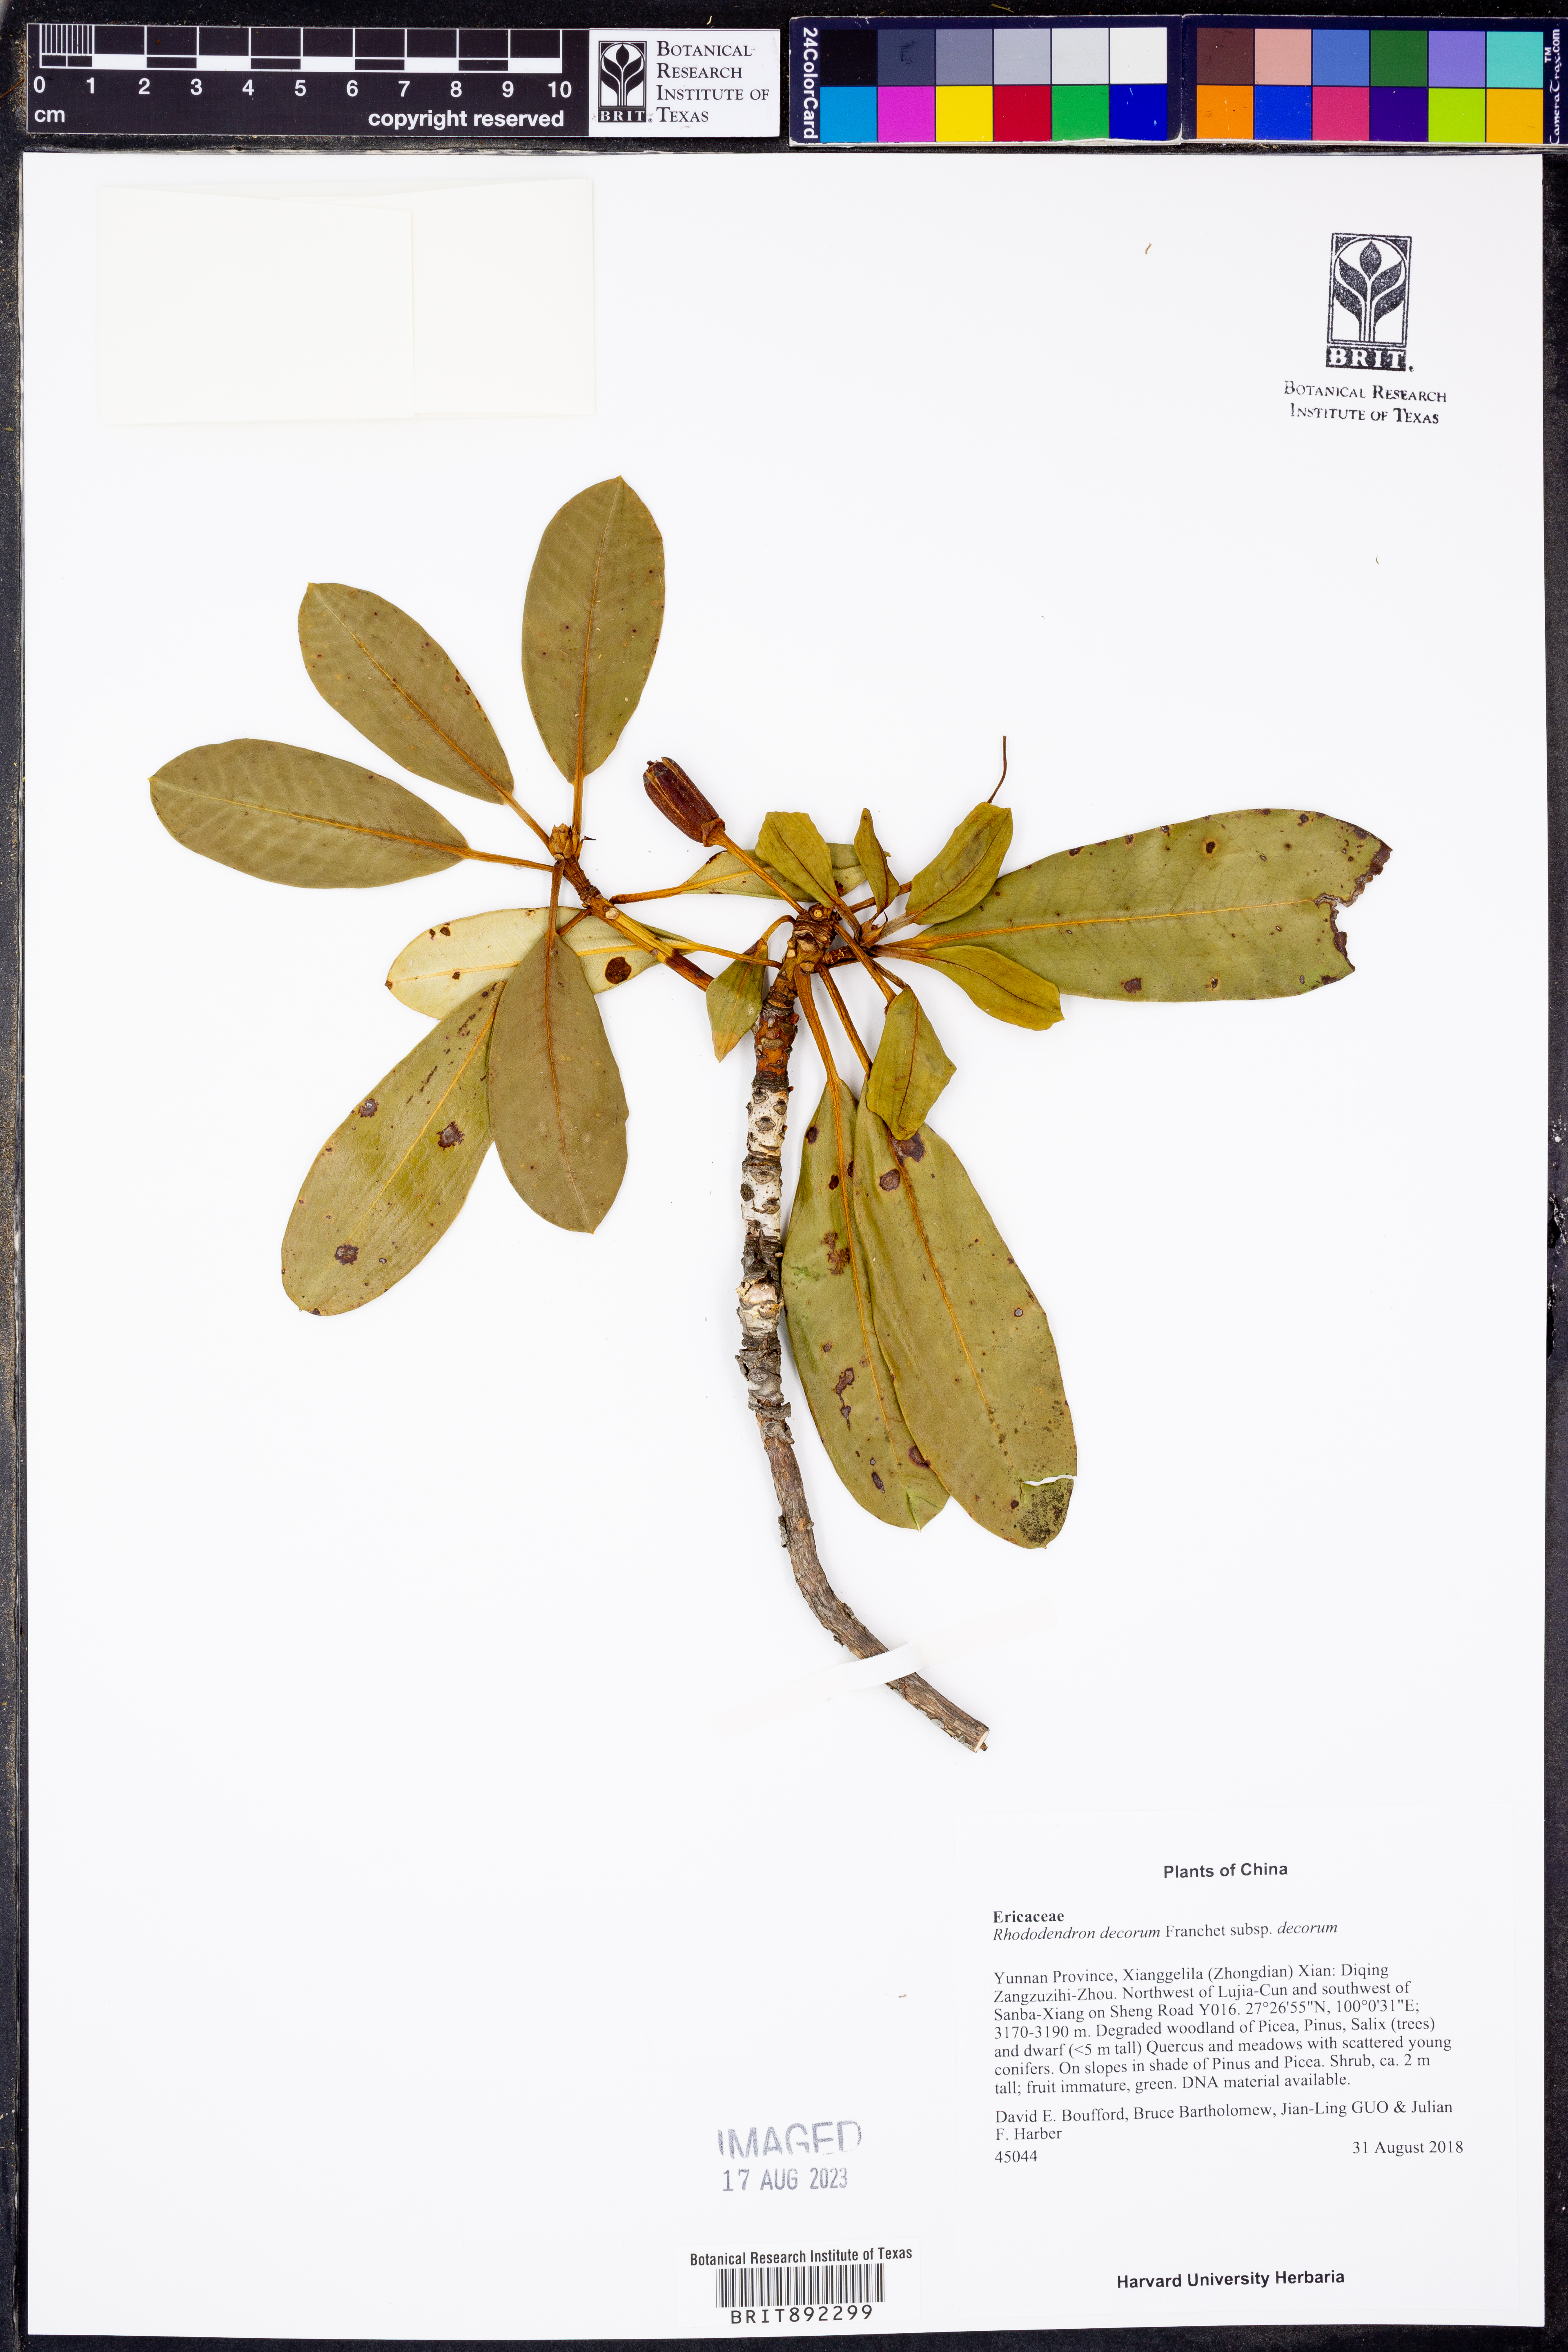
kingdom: Plantae
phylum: Tracheophyta
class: Magnoliopsida
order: Ericales
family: Ericaceae
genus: Rhododendron
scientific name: Rhododendron decorum
